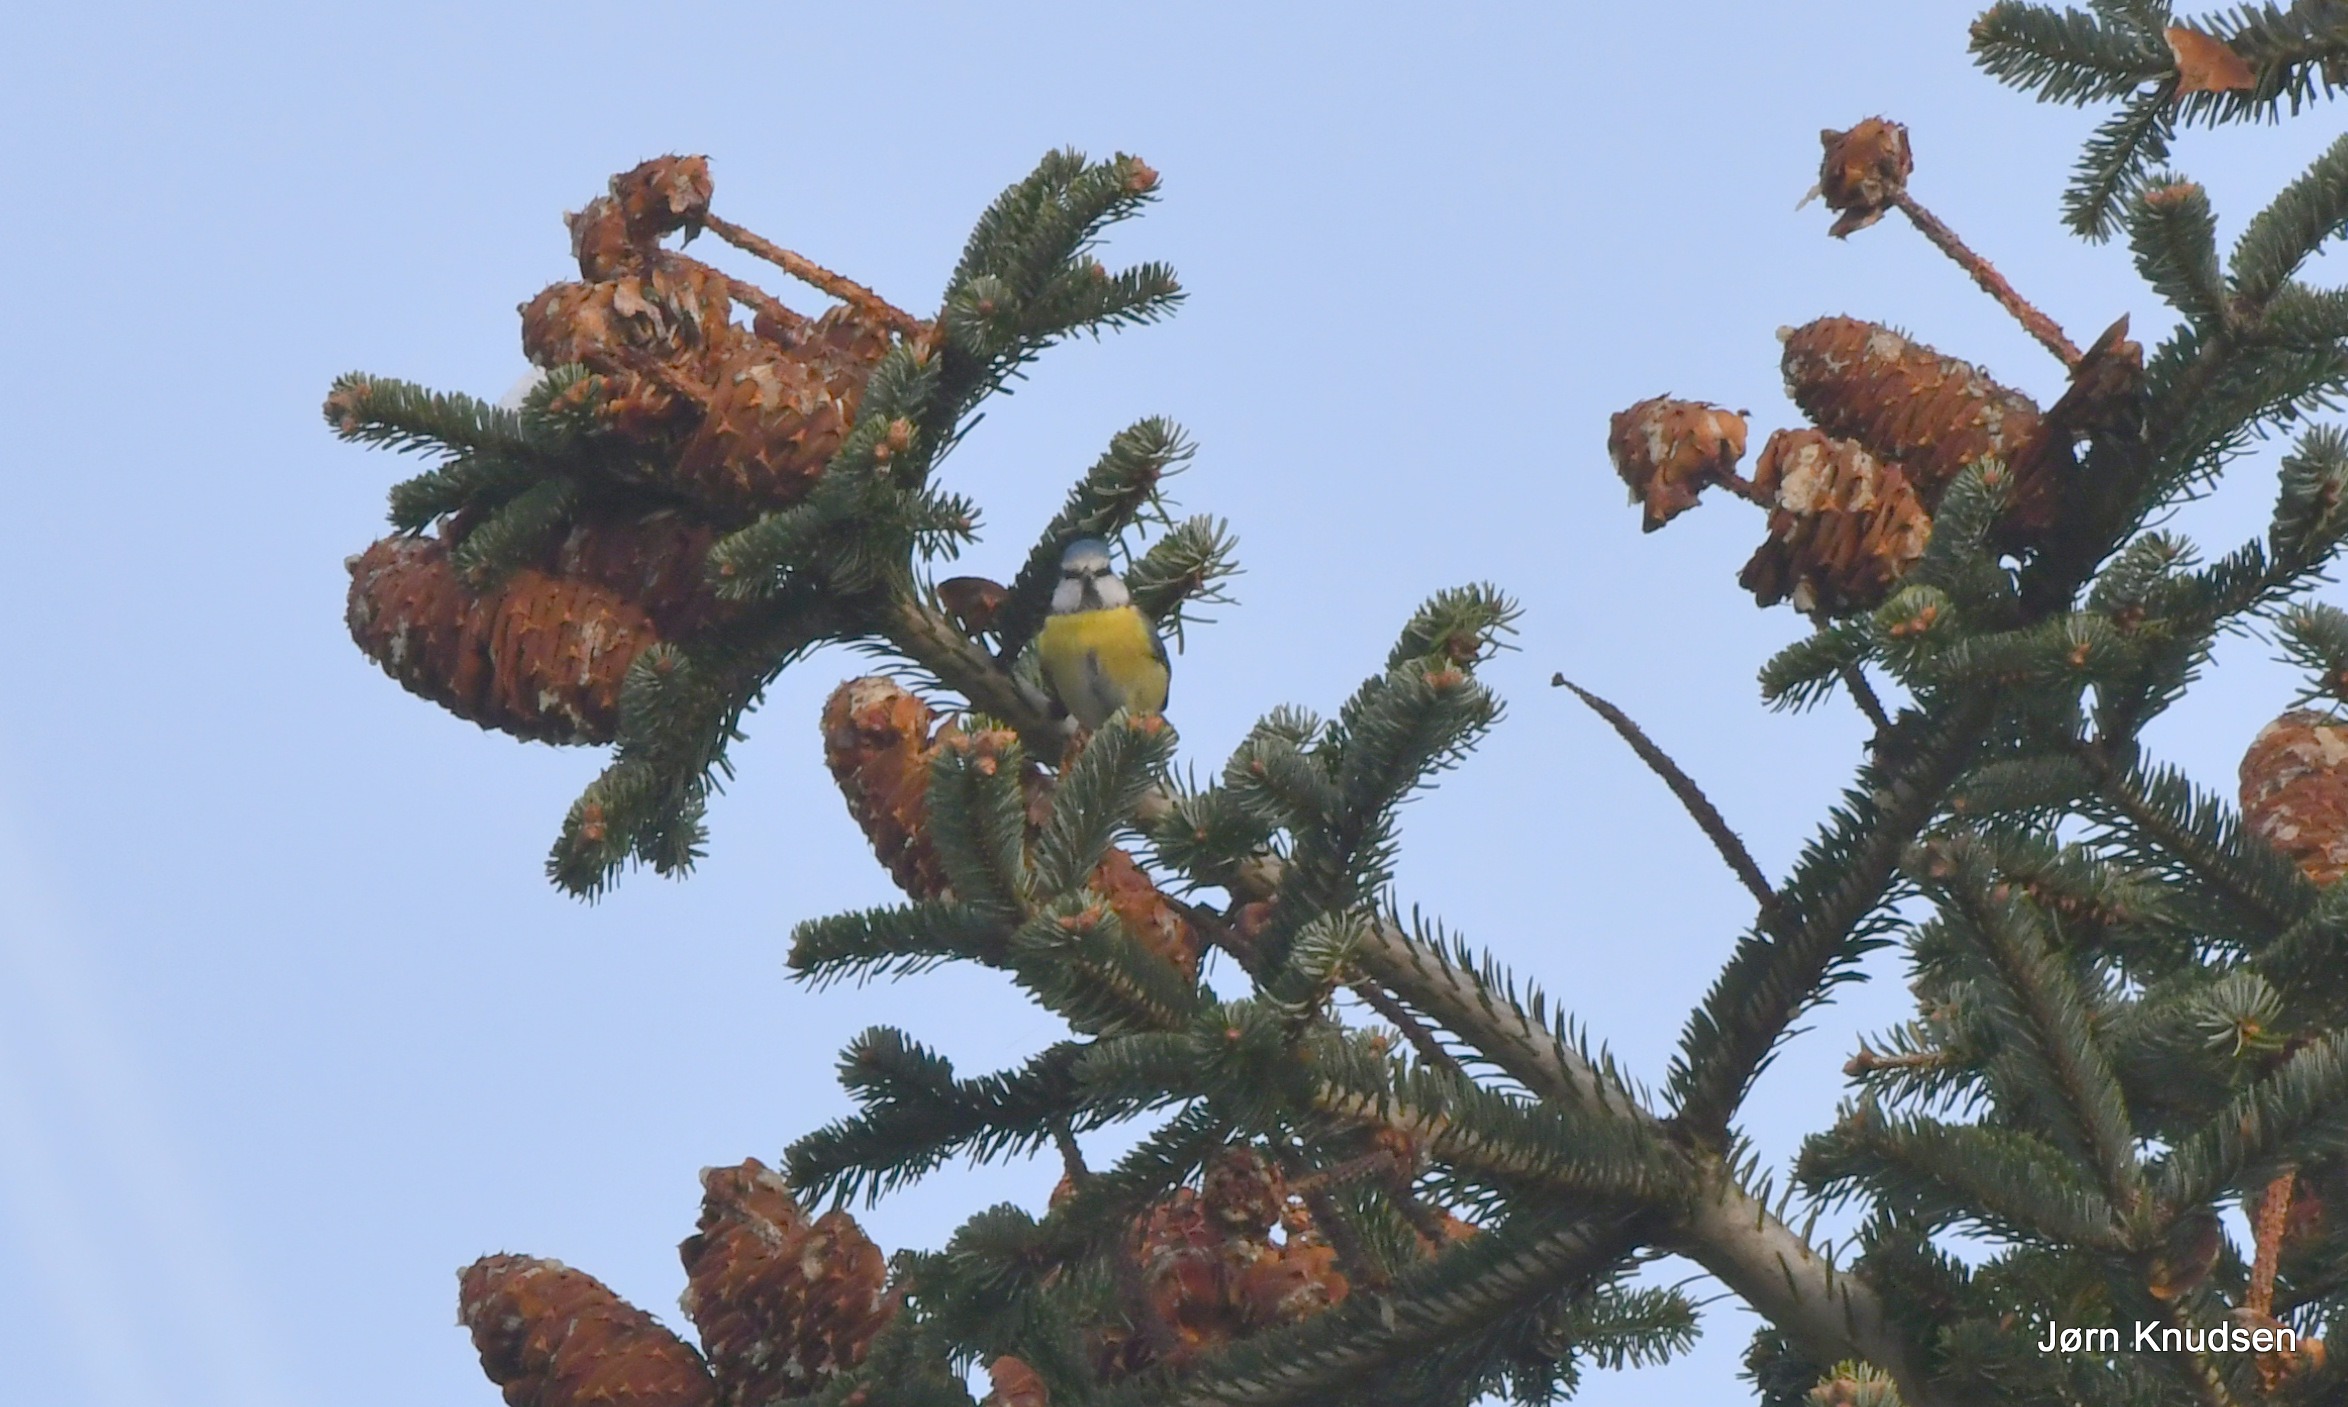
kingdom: Animalia
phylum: Chordata
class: Aves
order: Passeriformes
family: Paridae
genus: Cyanistes
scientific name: Cyanistes caeruleus
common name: Blåmejse
